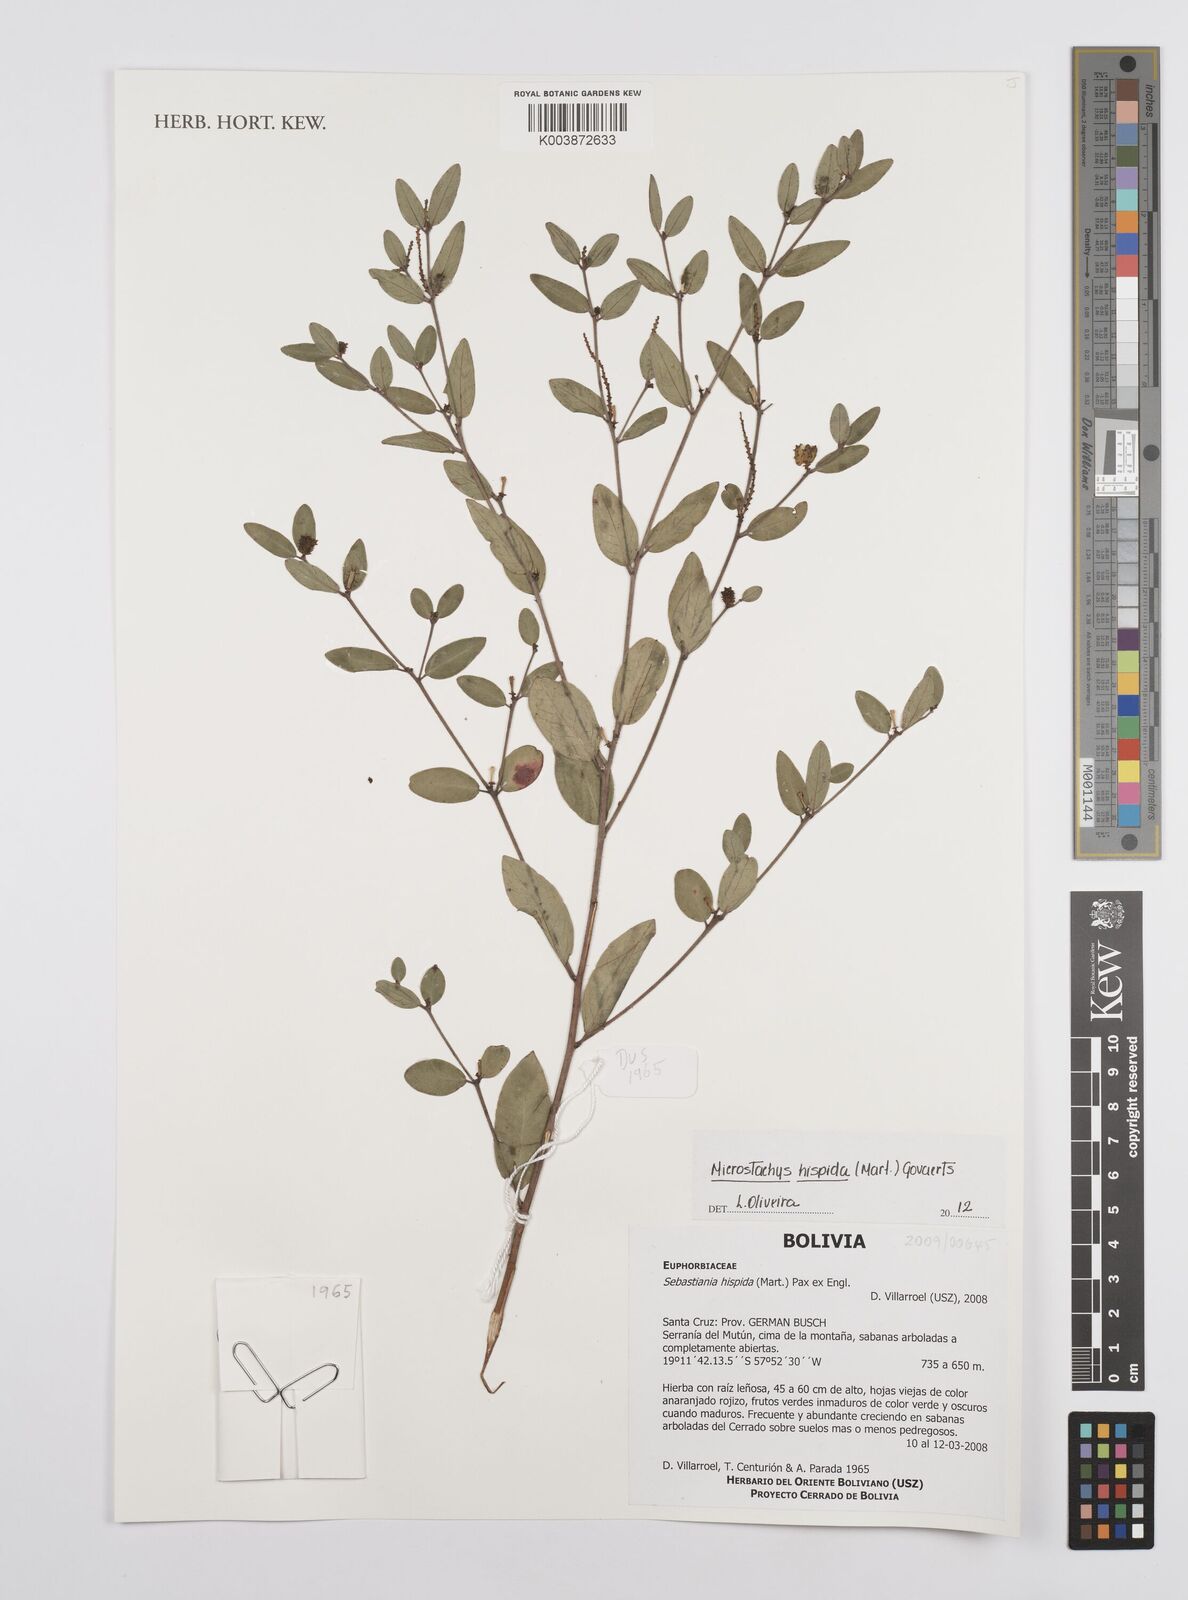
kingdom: Plantae
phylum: Tracheophyta
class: Magnoliopsida
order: Malpighiales
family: Euphorbiaceae
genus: Microstachys
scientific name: Microstachys hispida
